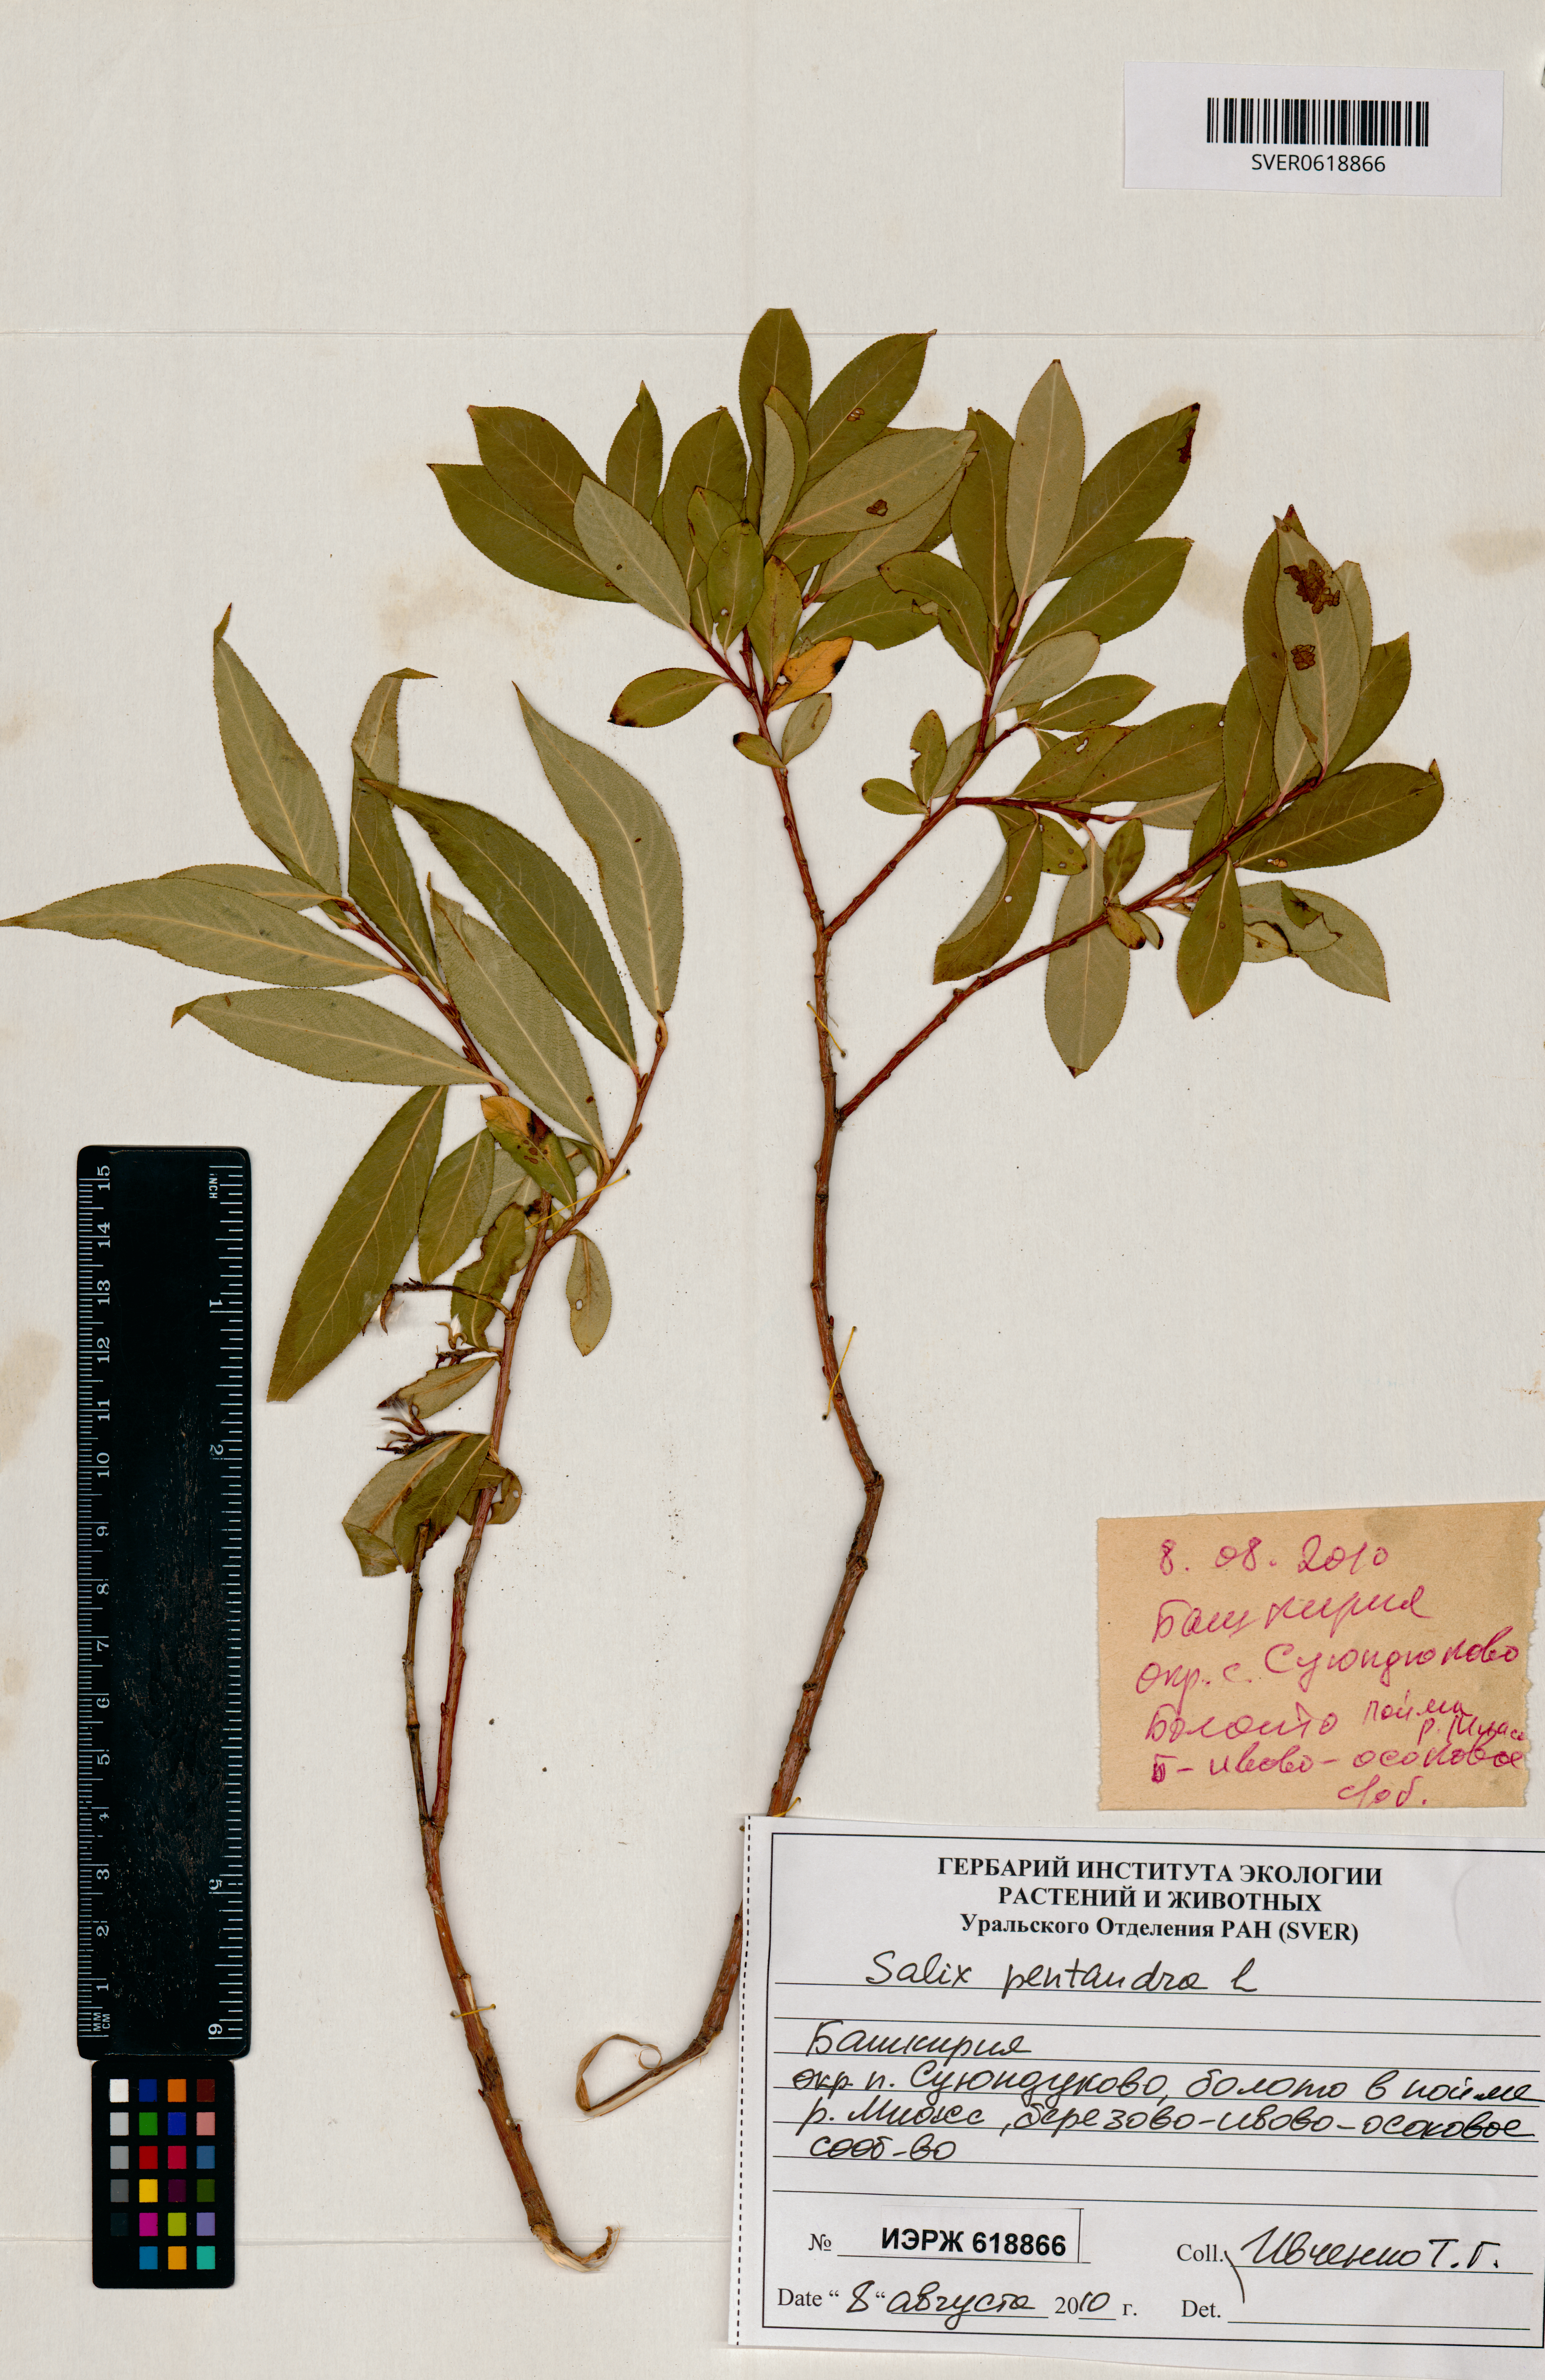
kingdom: Plantae
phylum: Tracheophyta
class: Magnoliopsida
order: Malpighiales
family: Salicaceae
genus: Salix
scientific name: Salix pentandra
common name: Bay willow
